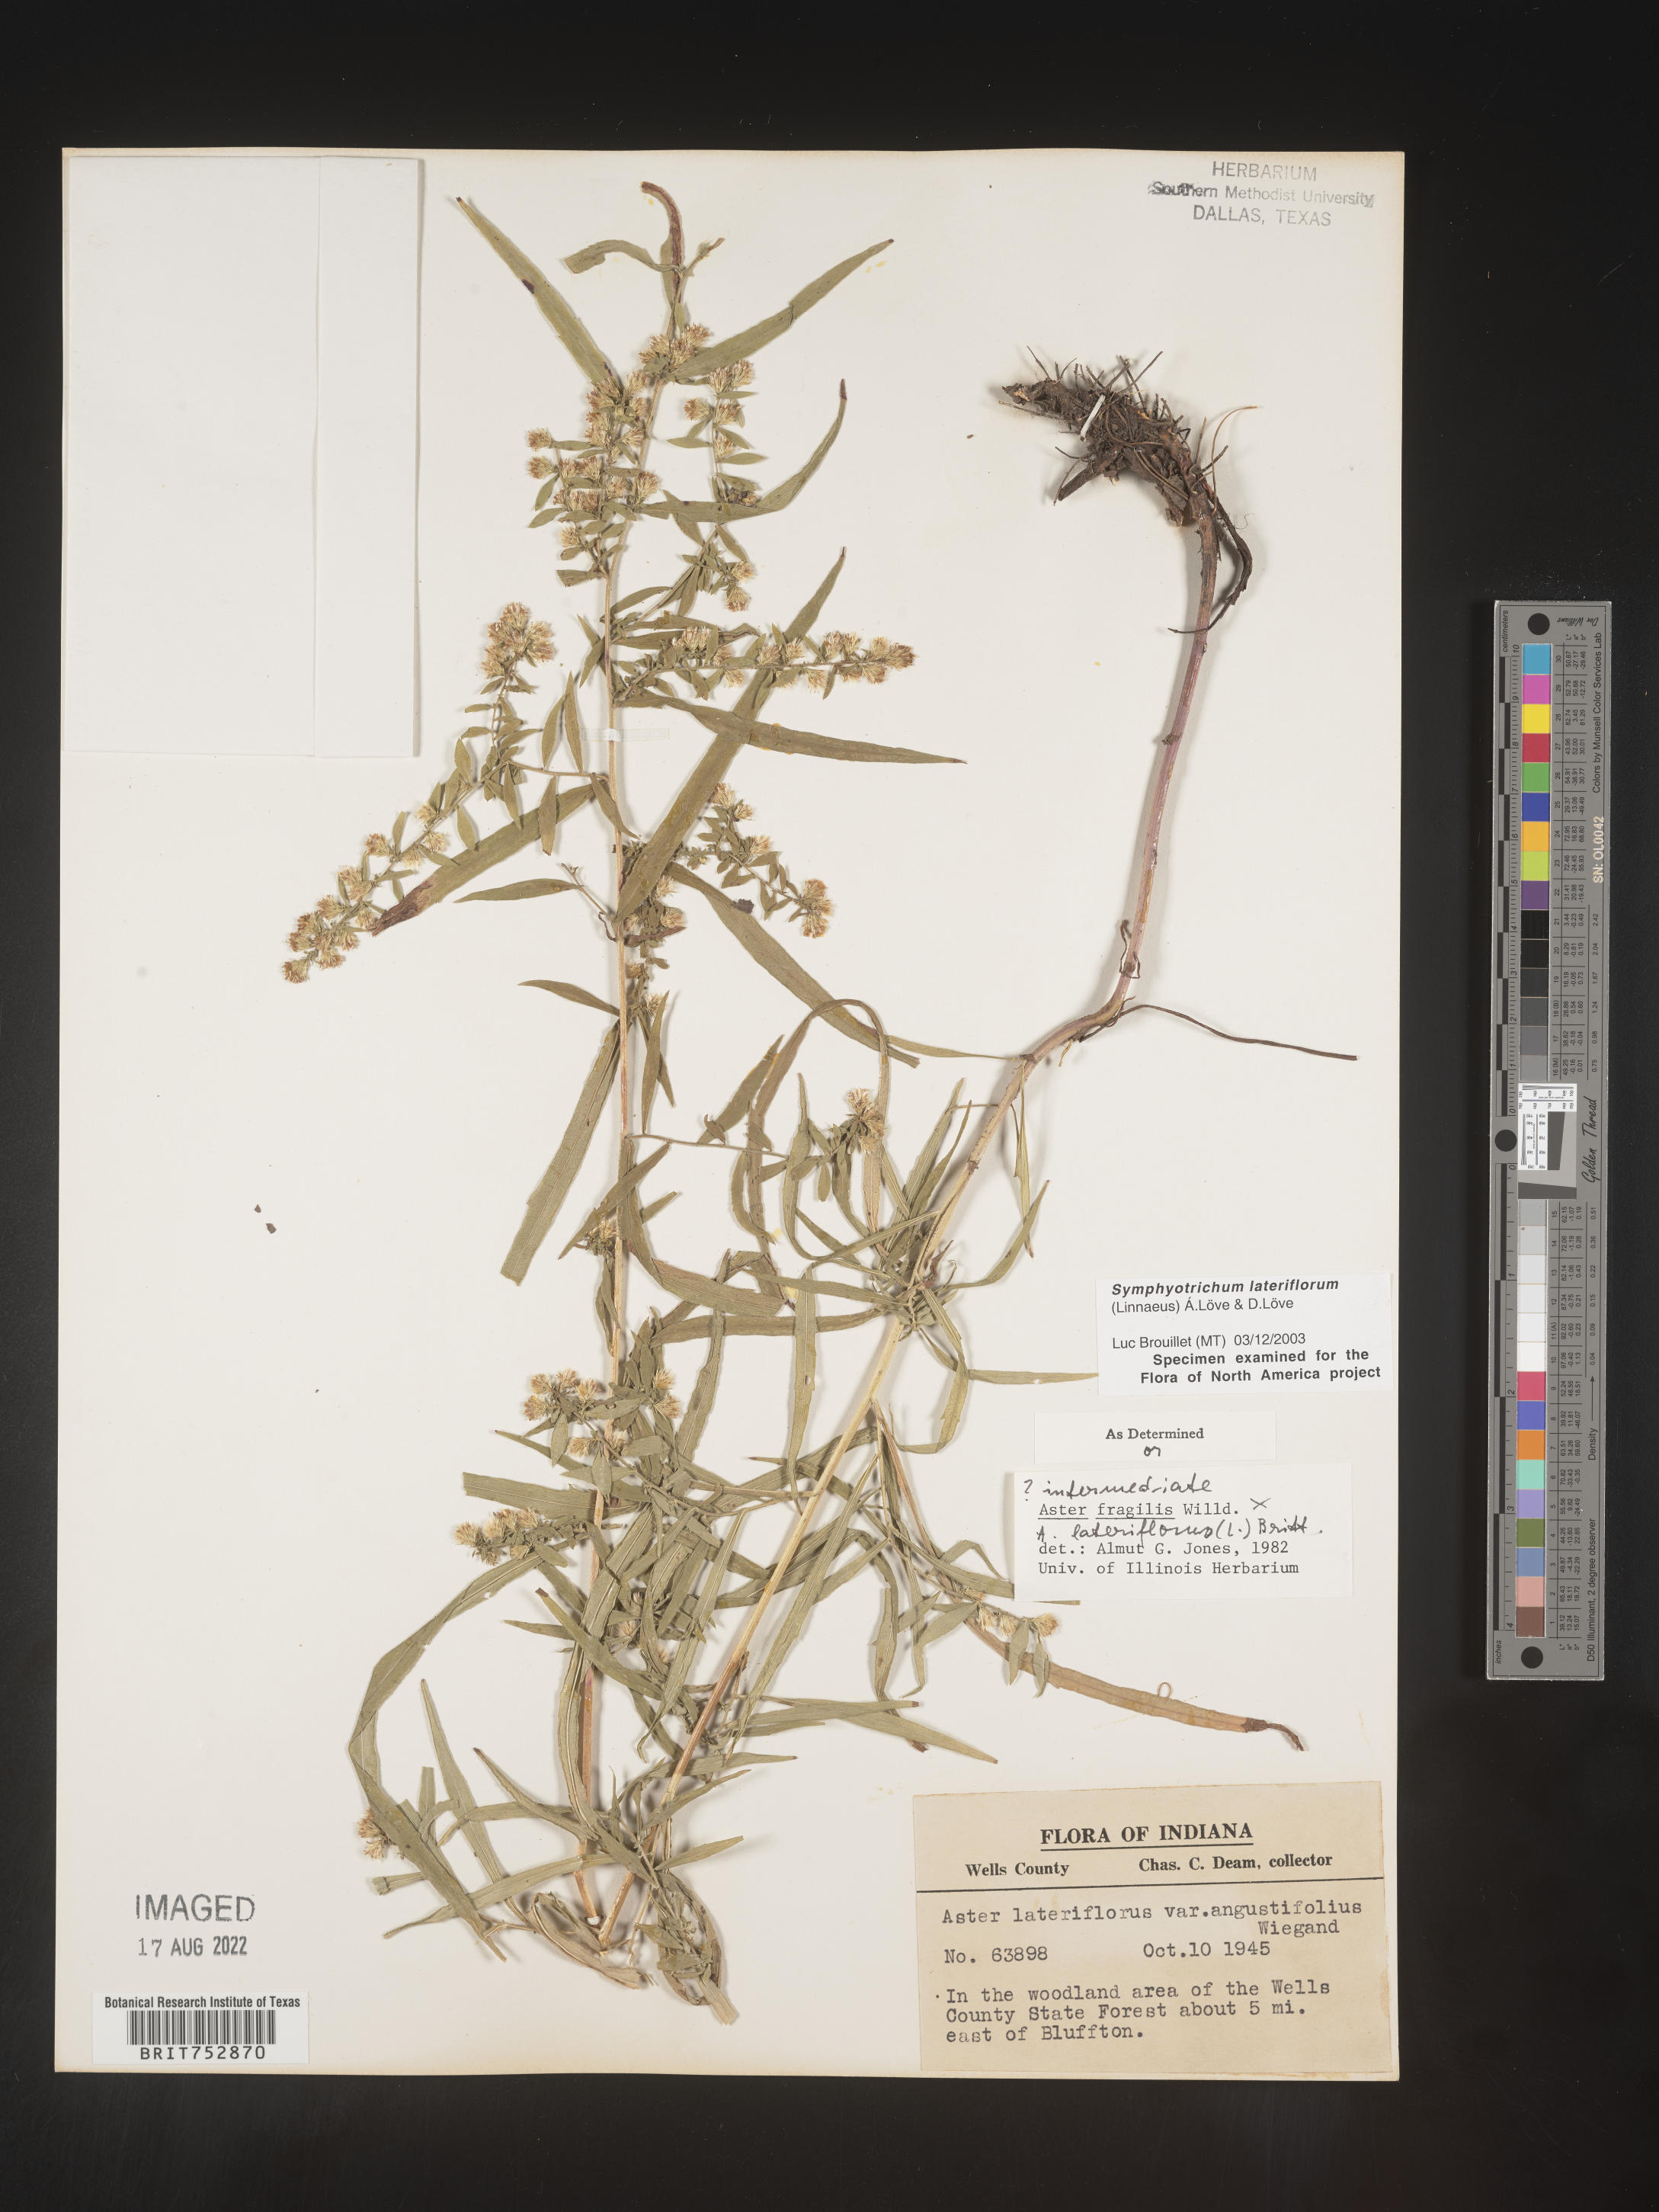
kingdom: Plantae
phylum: Tracheophyta
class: Magnoliopsida
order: Asterales
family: Asteraceae
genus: Symphyotrichum
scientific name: Symphyotrichum lateriflorum
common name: Calico aster
